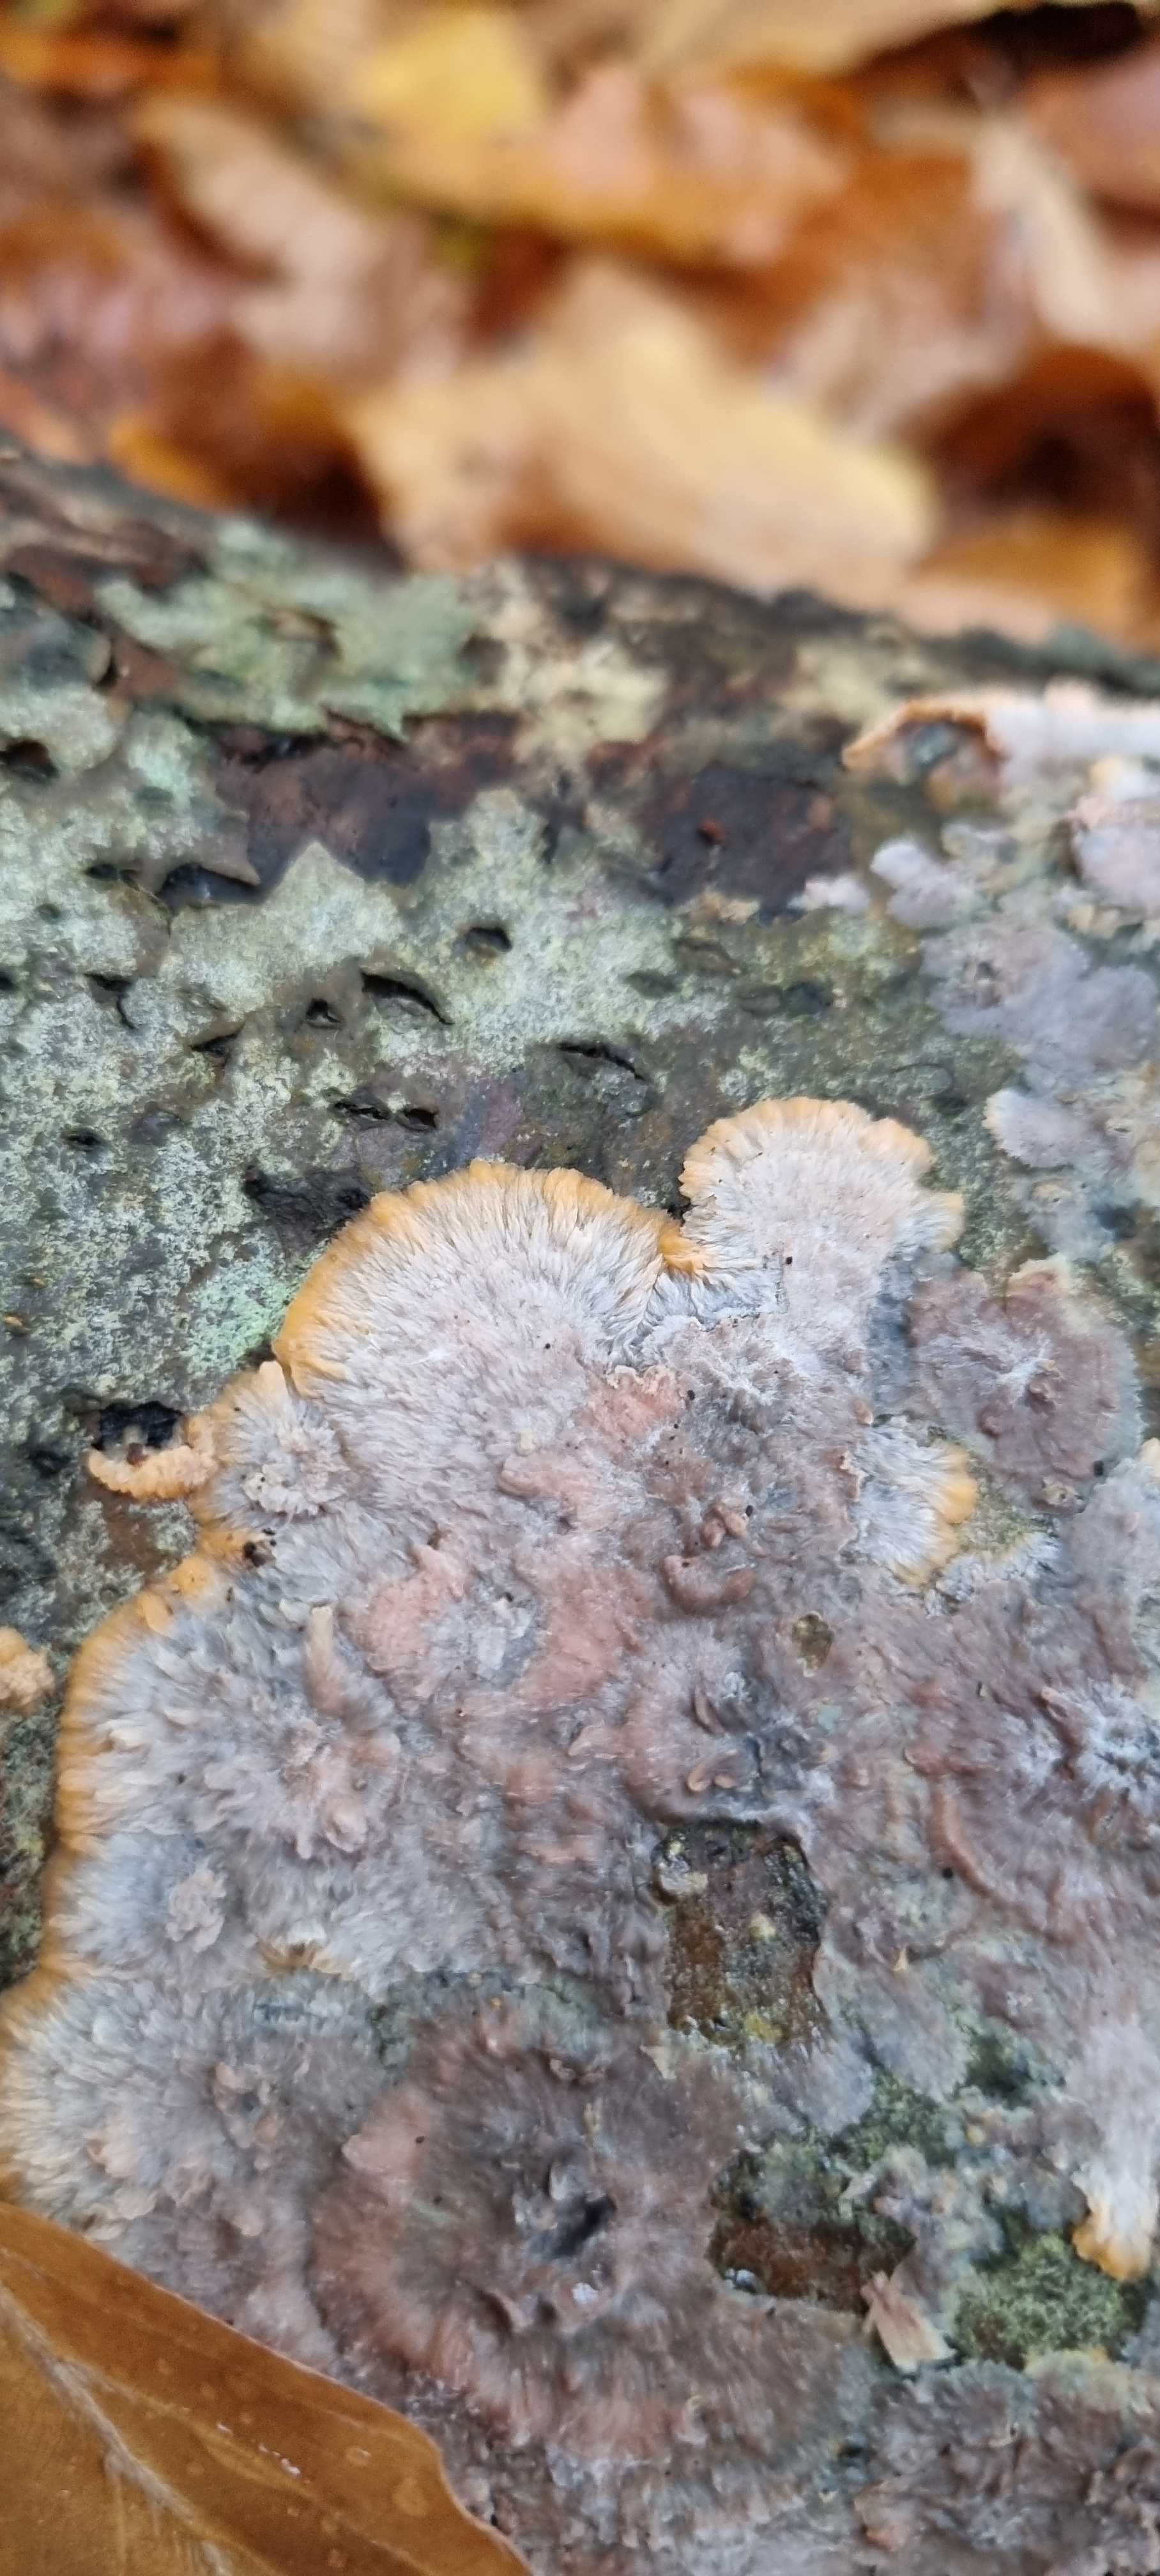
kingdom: Fungi
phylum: Basidiomycota
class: Agaricomycetes
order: Polyporales
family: Meruliaceae
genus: Phlebia
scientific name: Phlebia radiata
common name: stråle-åresvamp
